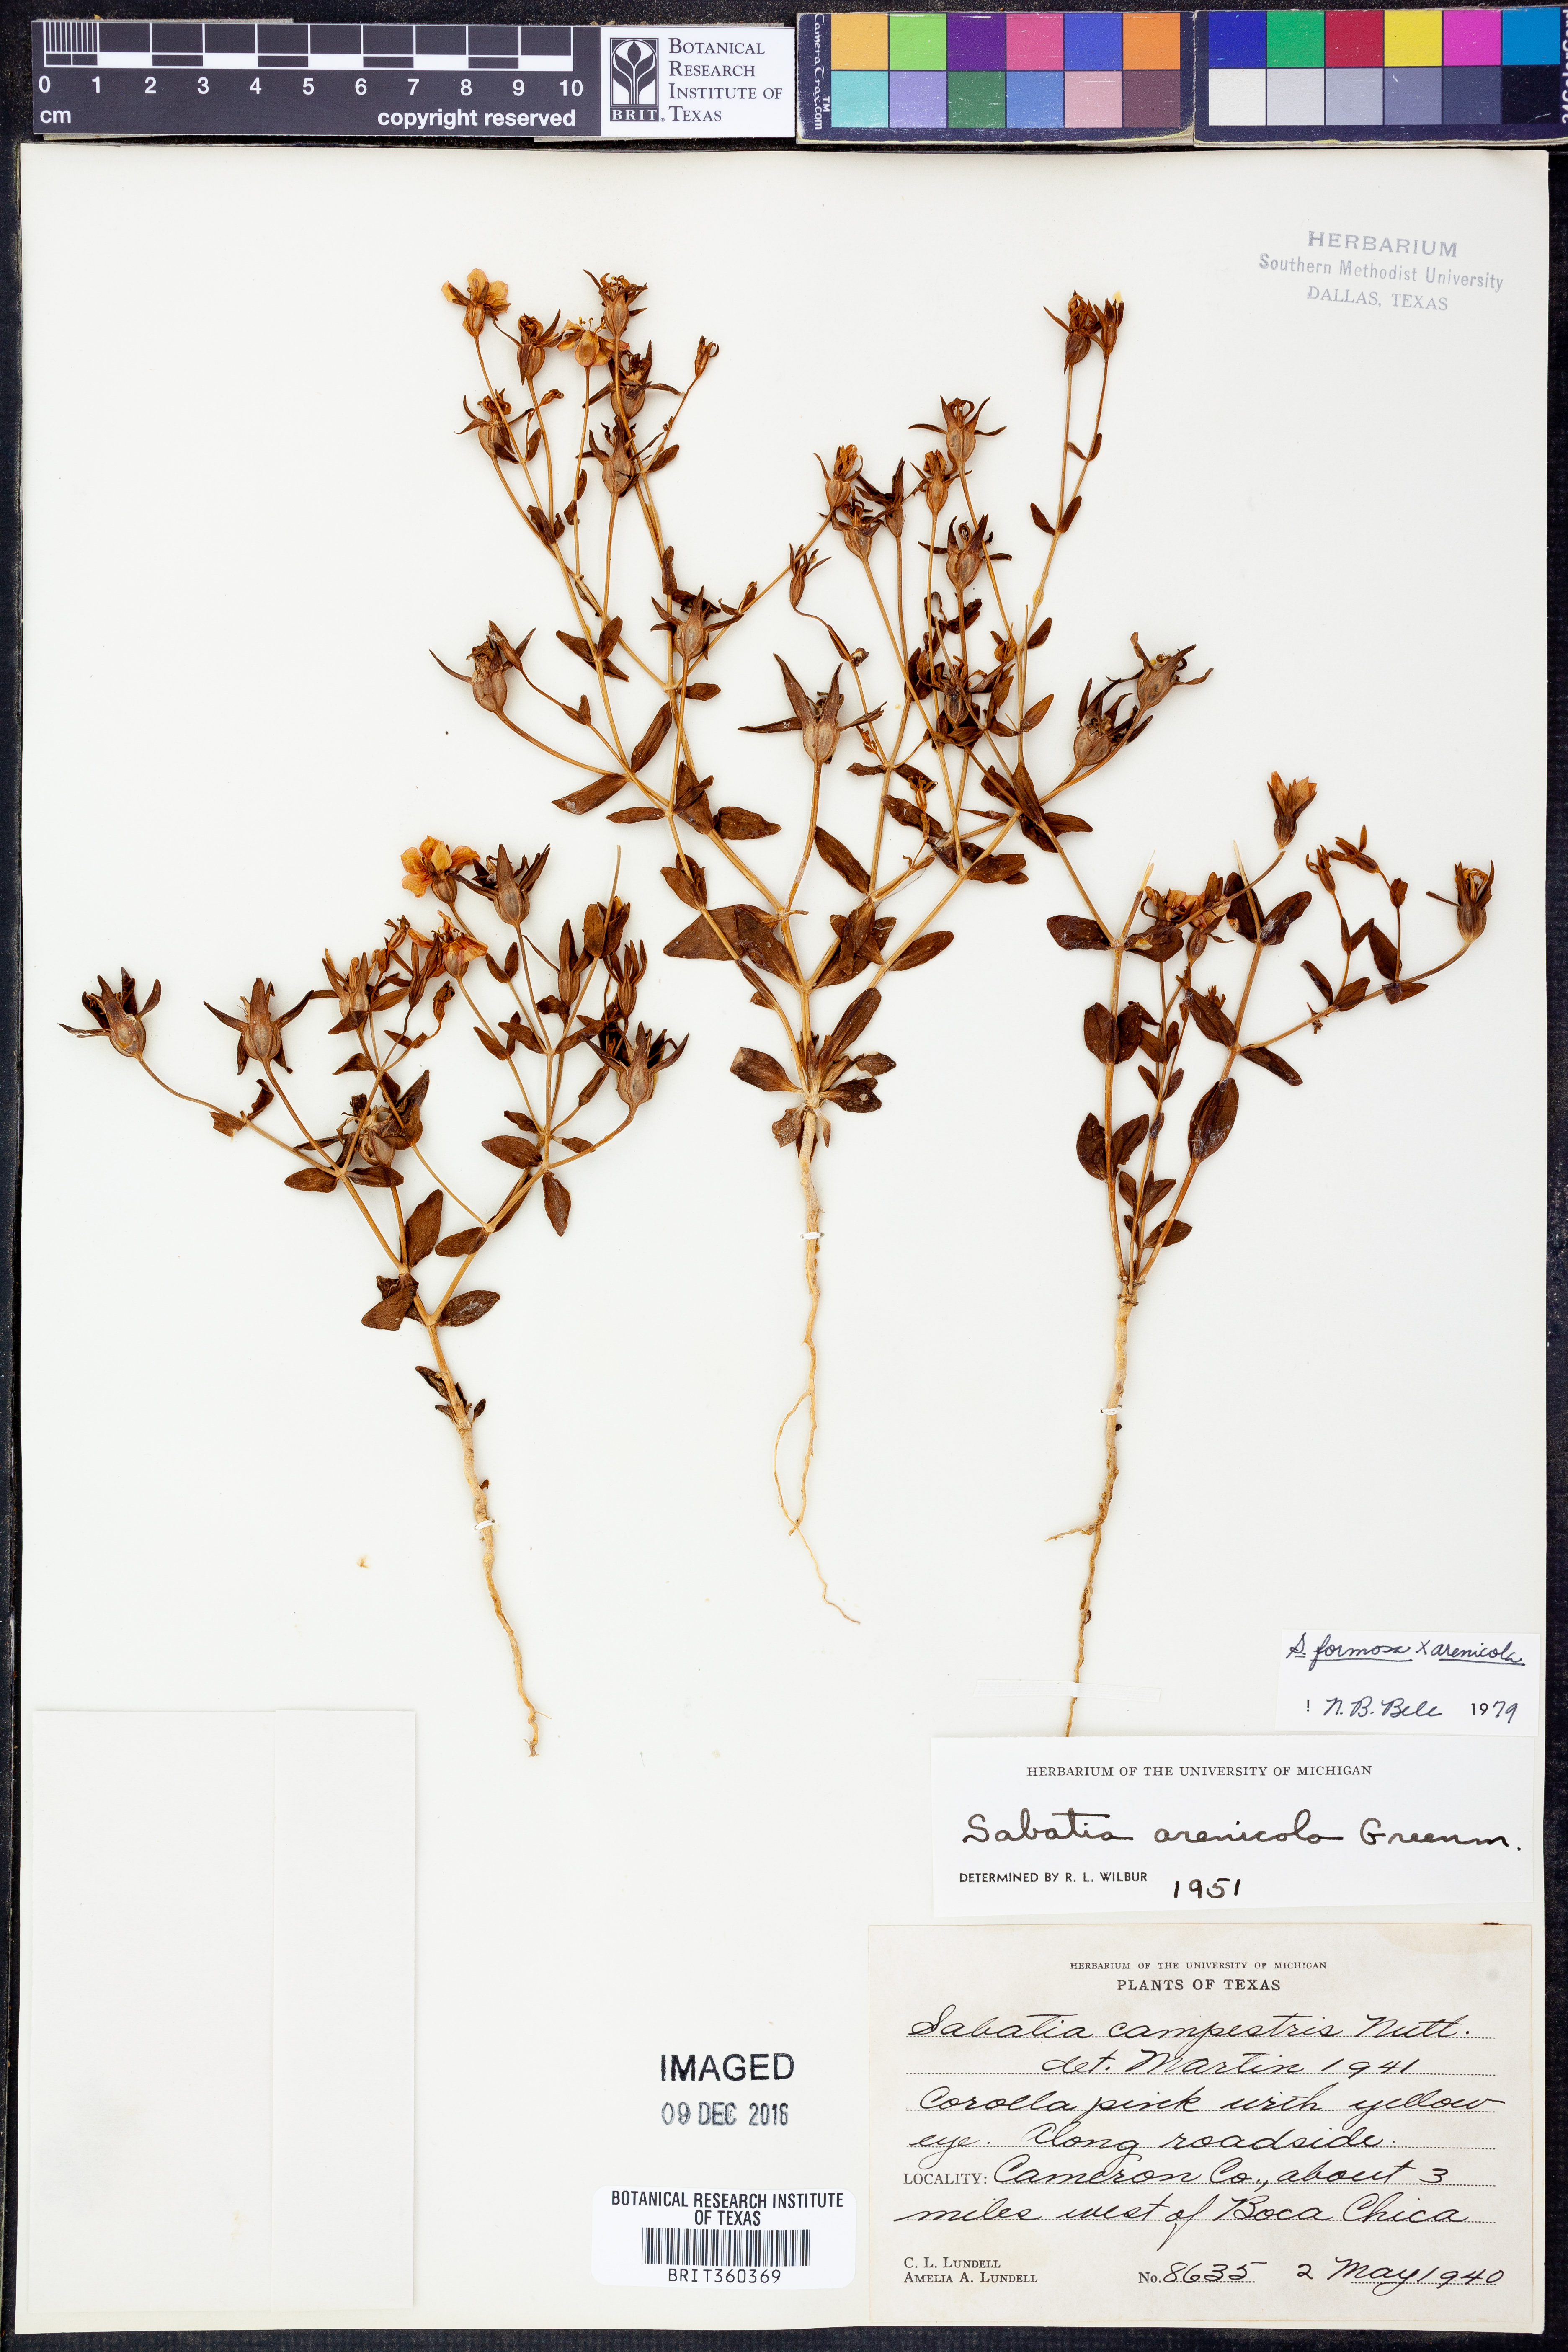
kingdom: Plantae
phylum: Tracheophyta
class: Magnoliopsida
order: Gentianales
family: Gentianaceae
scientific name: Gentianaceae
